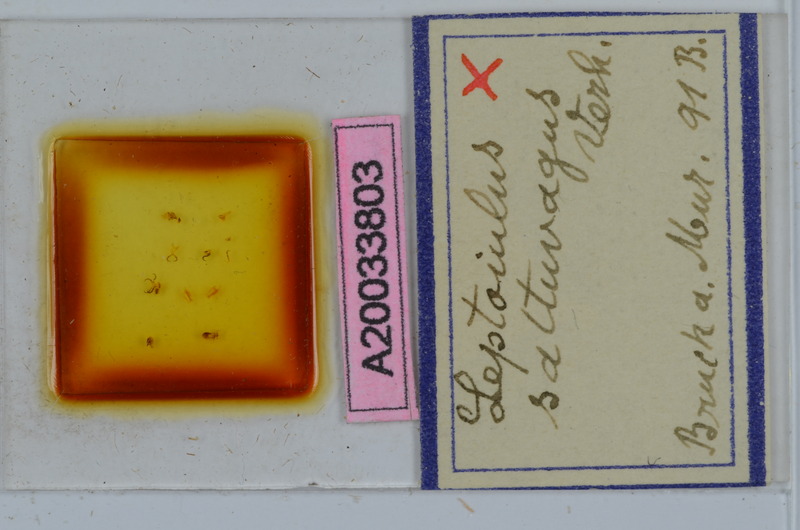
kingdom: Animalia
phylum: Arthropoda
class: Diplopoda
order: Julida
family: Julidae
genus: Leptoiulus
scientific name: Leptoiulus saltuvagus
